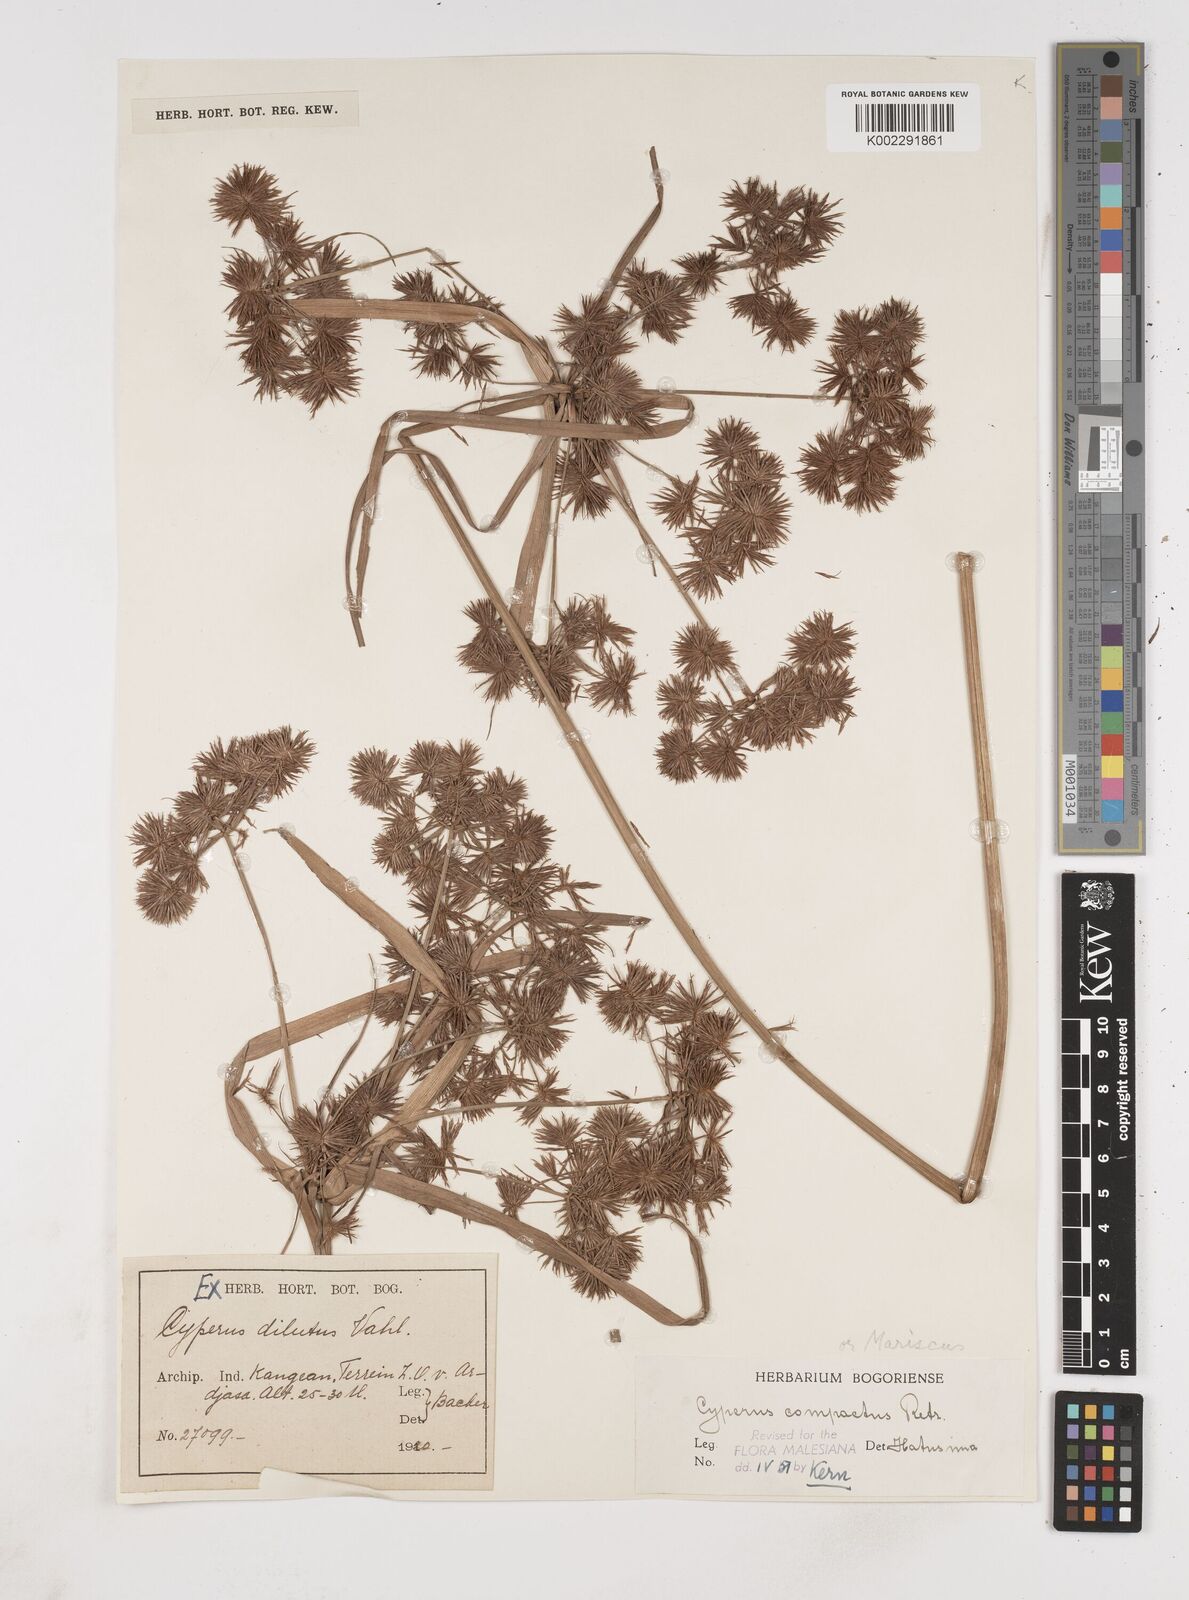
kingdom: Plantae
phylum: Tracheophyta
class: Liliopsida
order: Poales
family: Cyperaceae
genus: Cyperus
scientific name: Cyperus compactus
